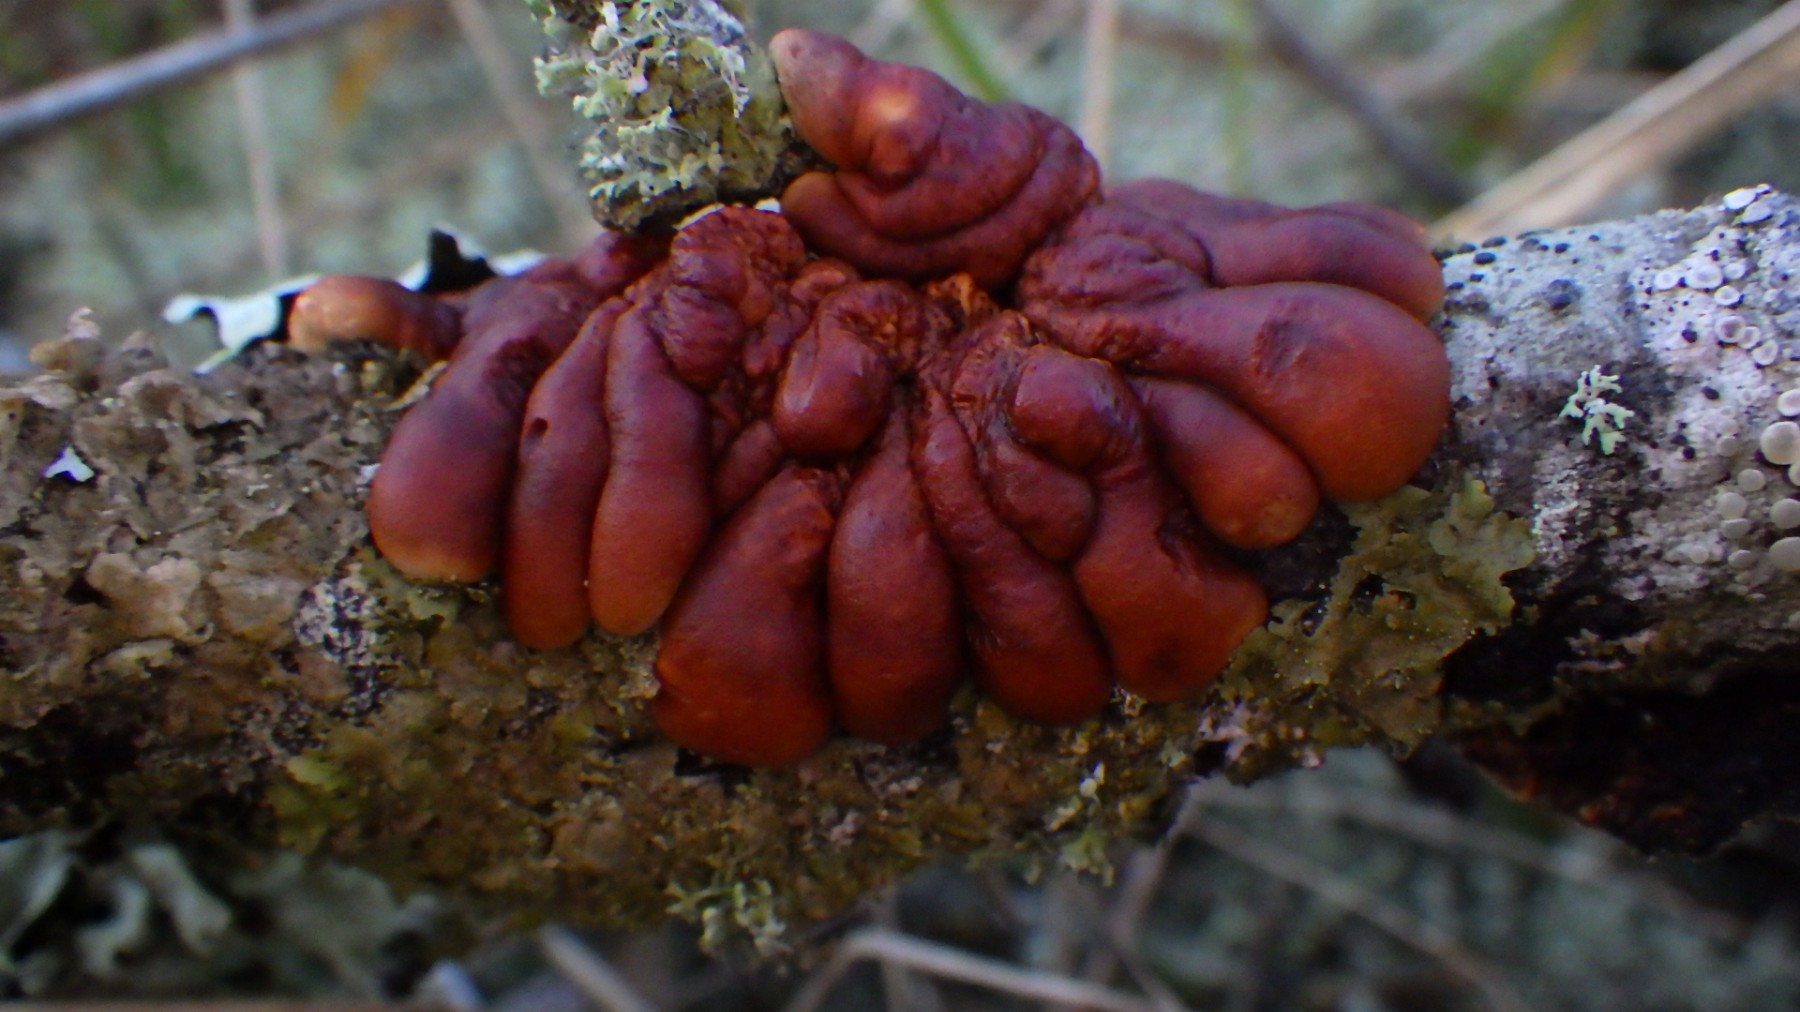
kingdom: Fungi
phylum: Ascomycota
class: Sordariomycetes
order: Hypocreales
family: Hypocreaceae
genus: Hypocreopsis
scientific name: Hypocreopsis lichenoides
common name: pilfinger
